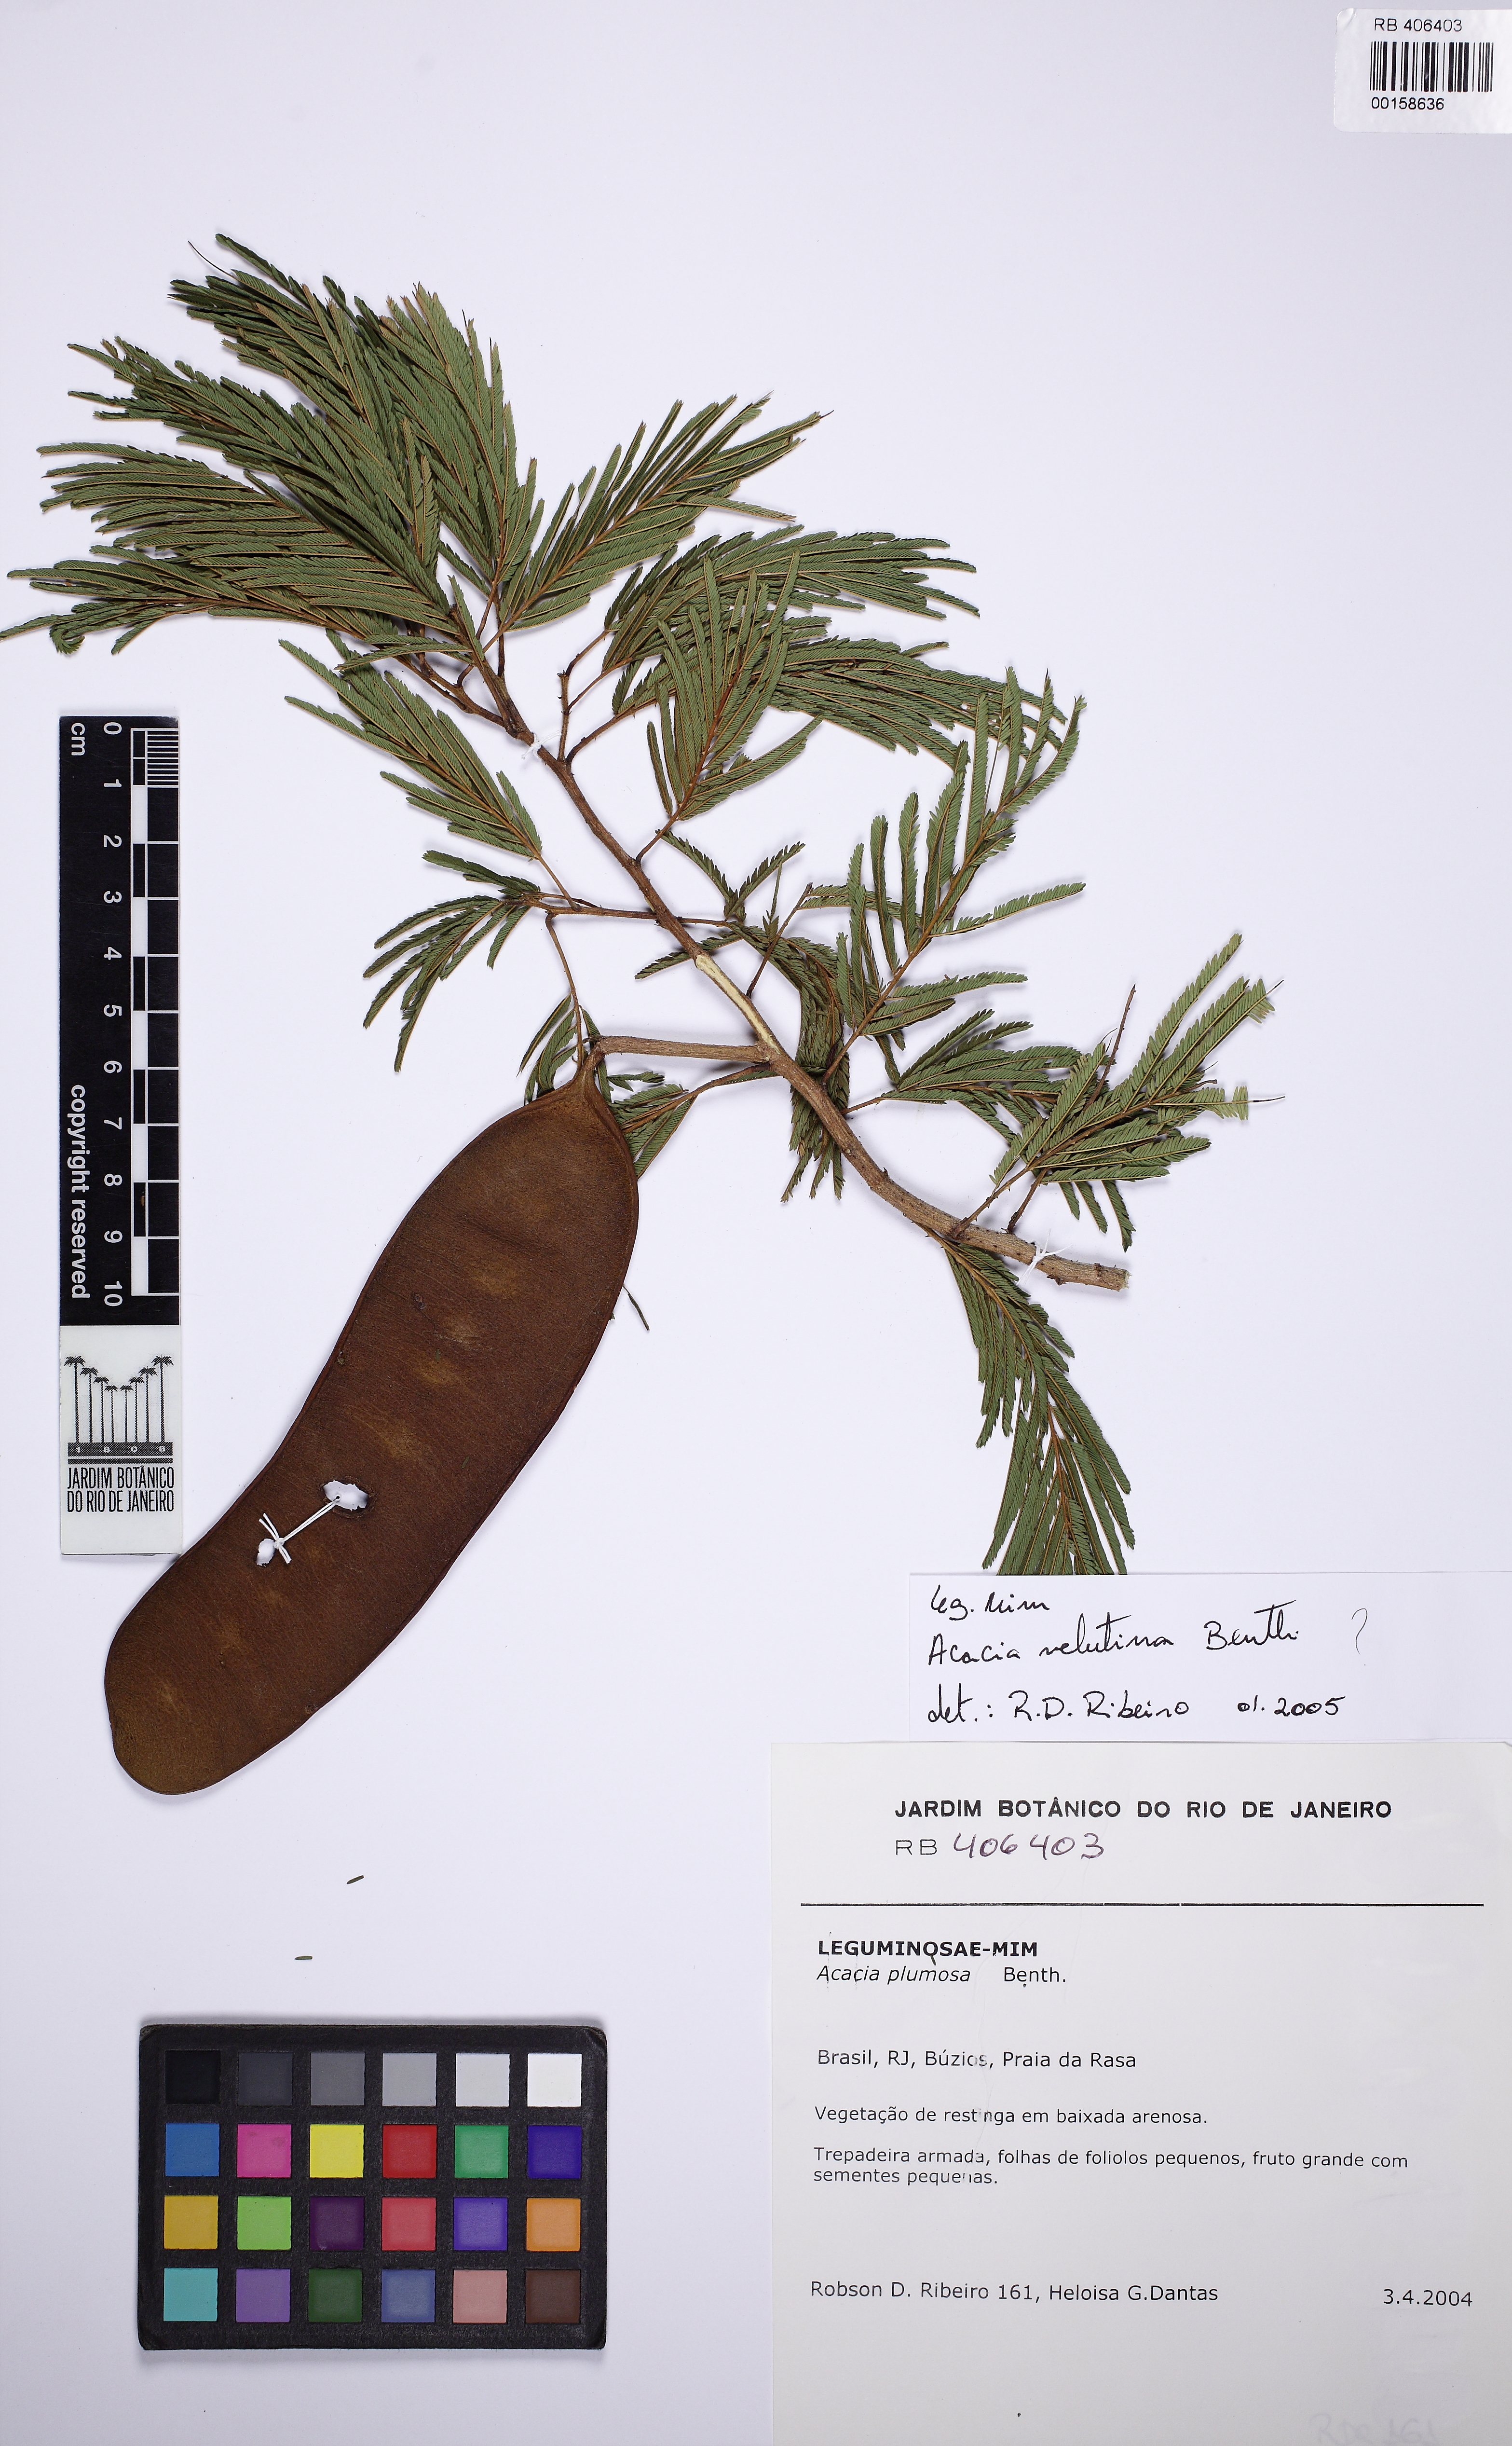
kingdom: Plantae
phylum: Tracheophyta
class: Magnoliopsida
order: Fabales
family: Fabaceae
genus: Senegalia
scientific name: Senegalia angico
